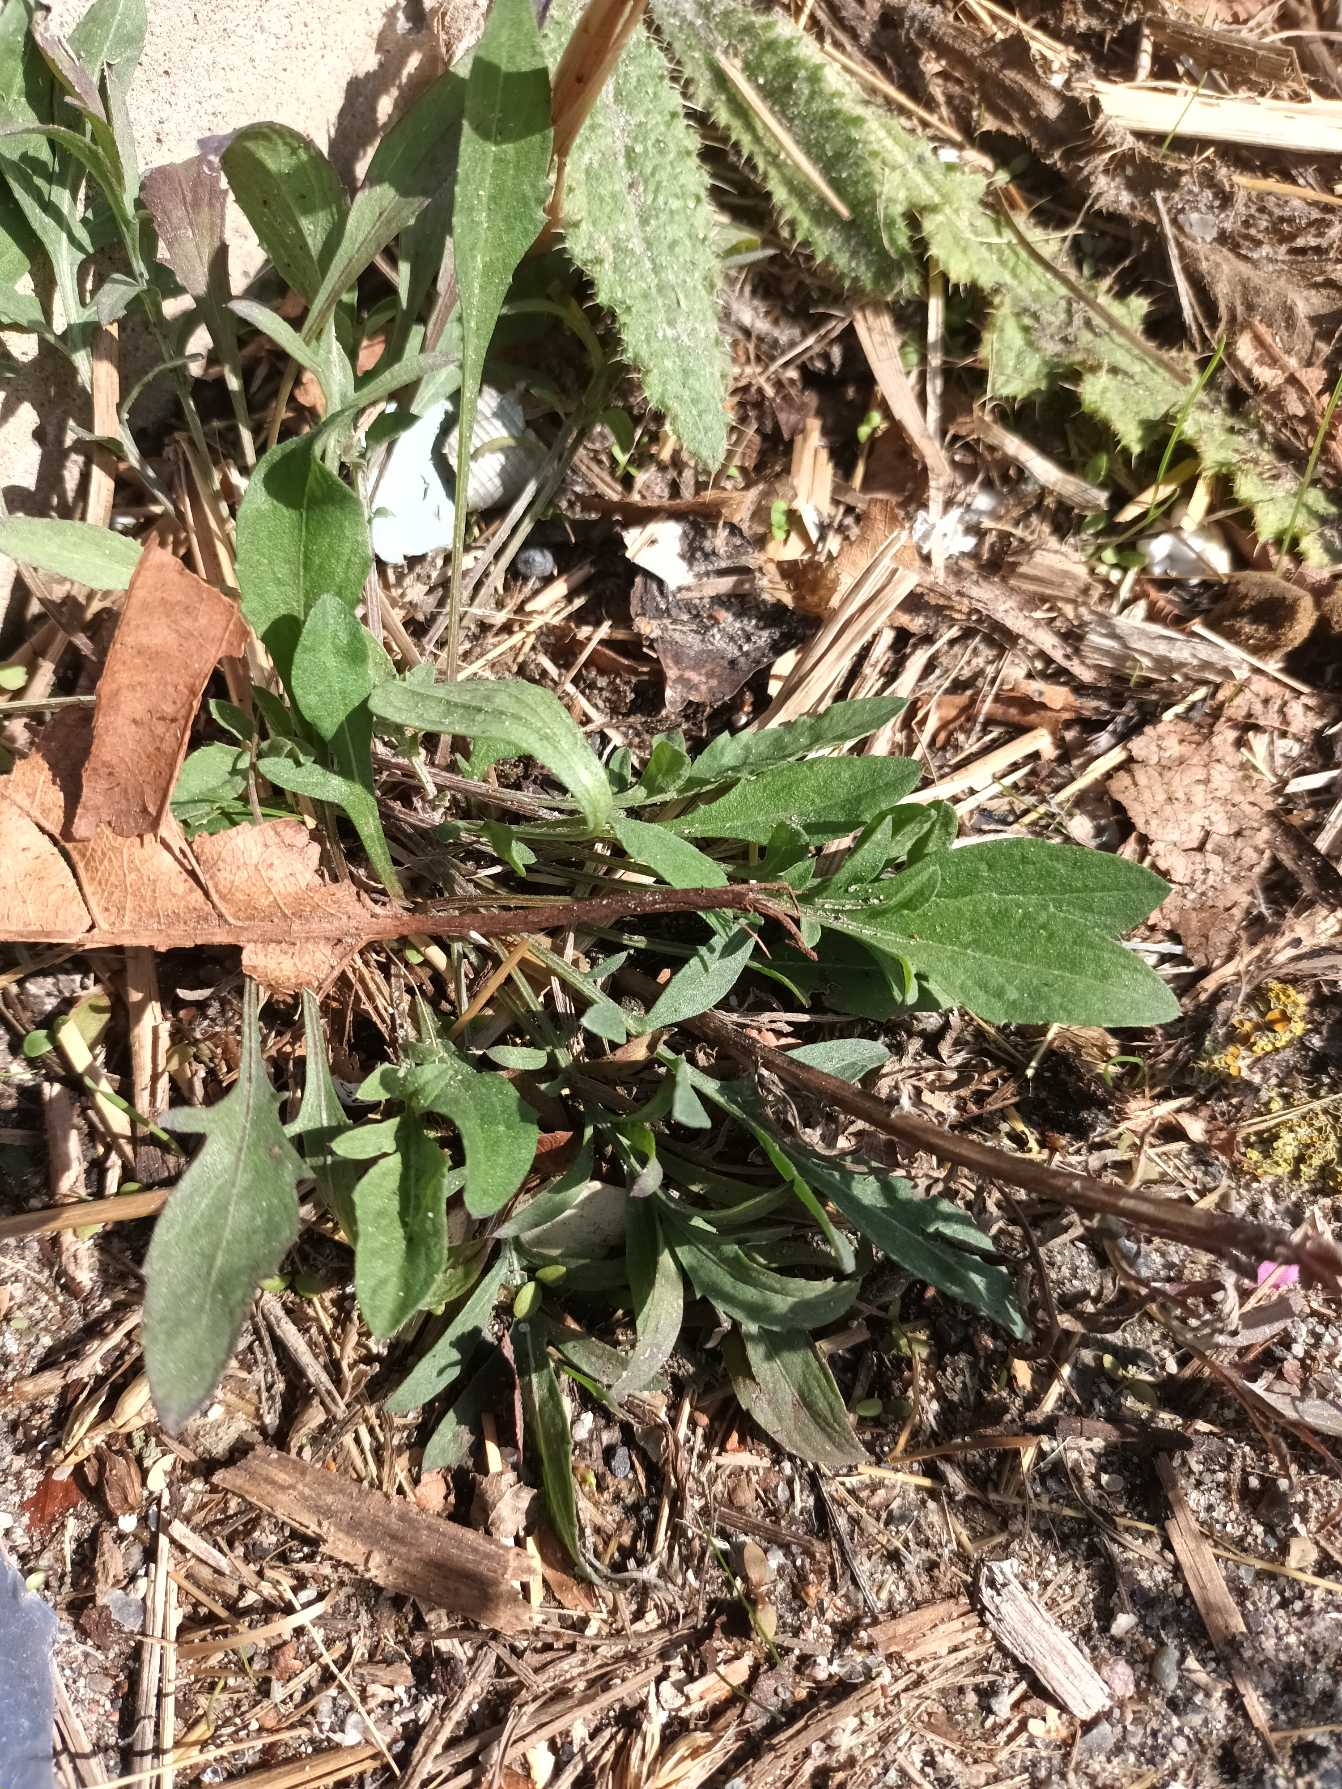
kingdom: Plantae
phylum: Tracheophyta
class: Magnoliopsida
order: Asterales
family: Asteraceae
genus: Centaurea
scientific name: Centaurea stoebe
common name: Mangegrenet knopurt
